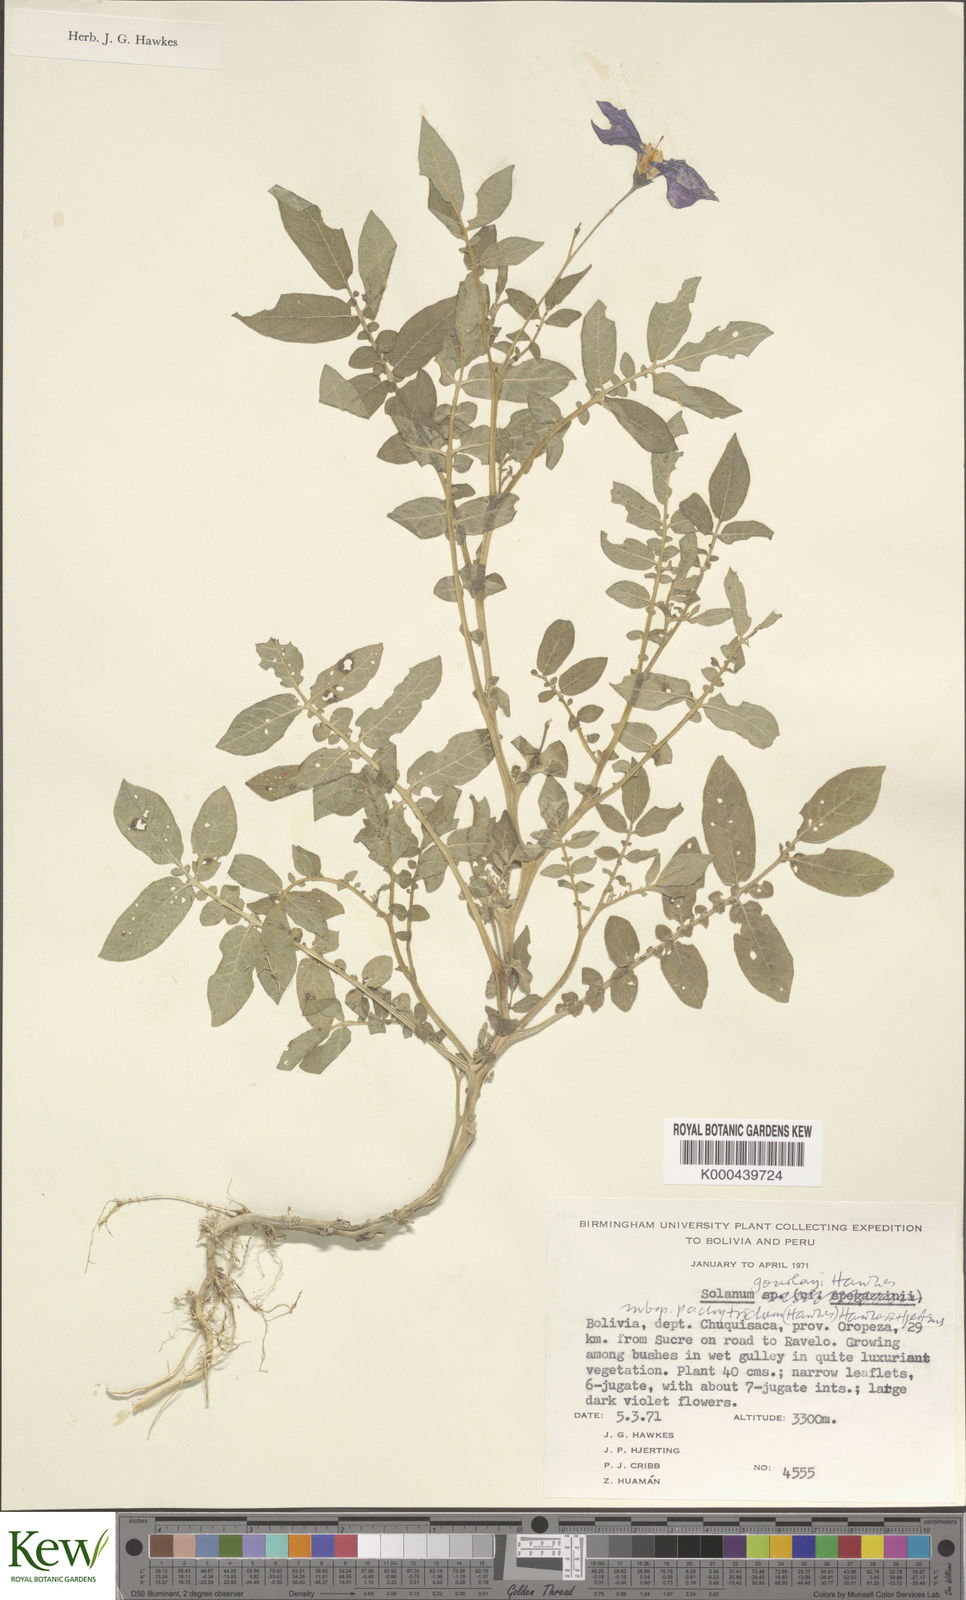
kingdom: Plantae
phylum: Tracheophyta
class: Magnoliopsida
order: Solanales
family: Solanaceae
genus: Solanum
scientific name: Solanum brevicaule
